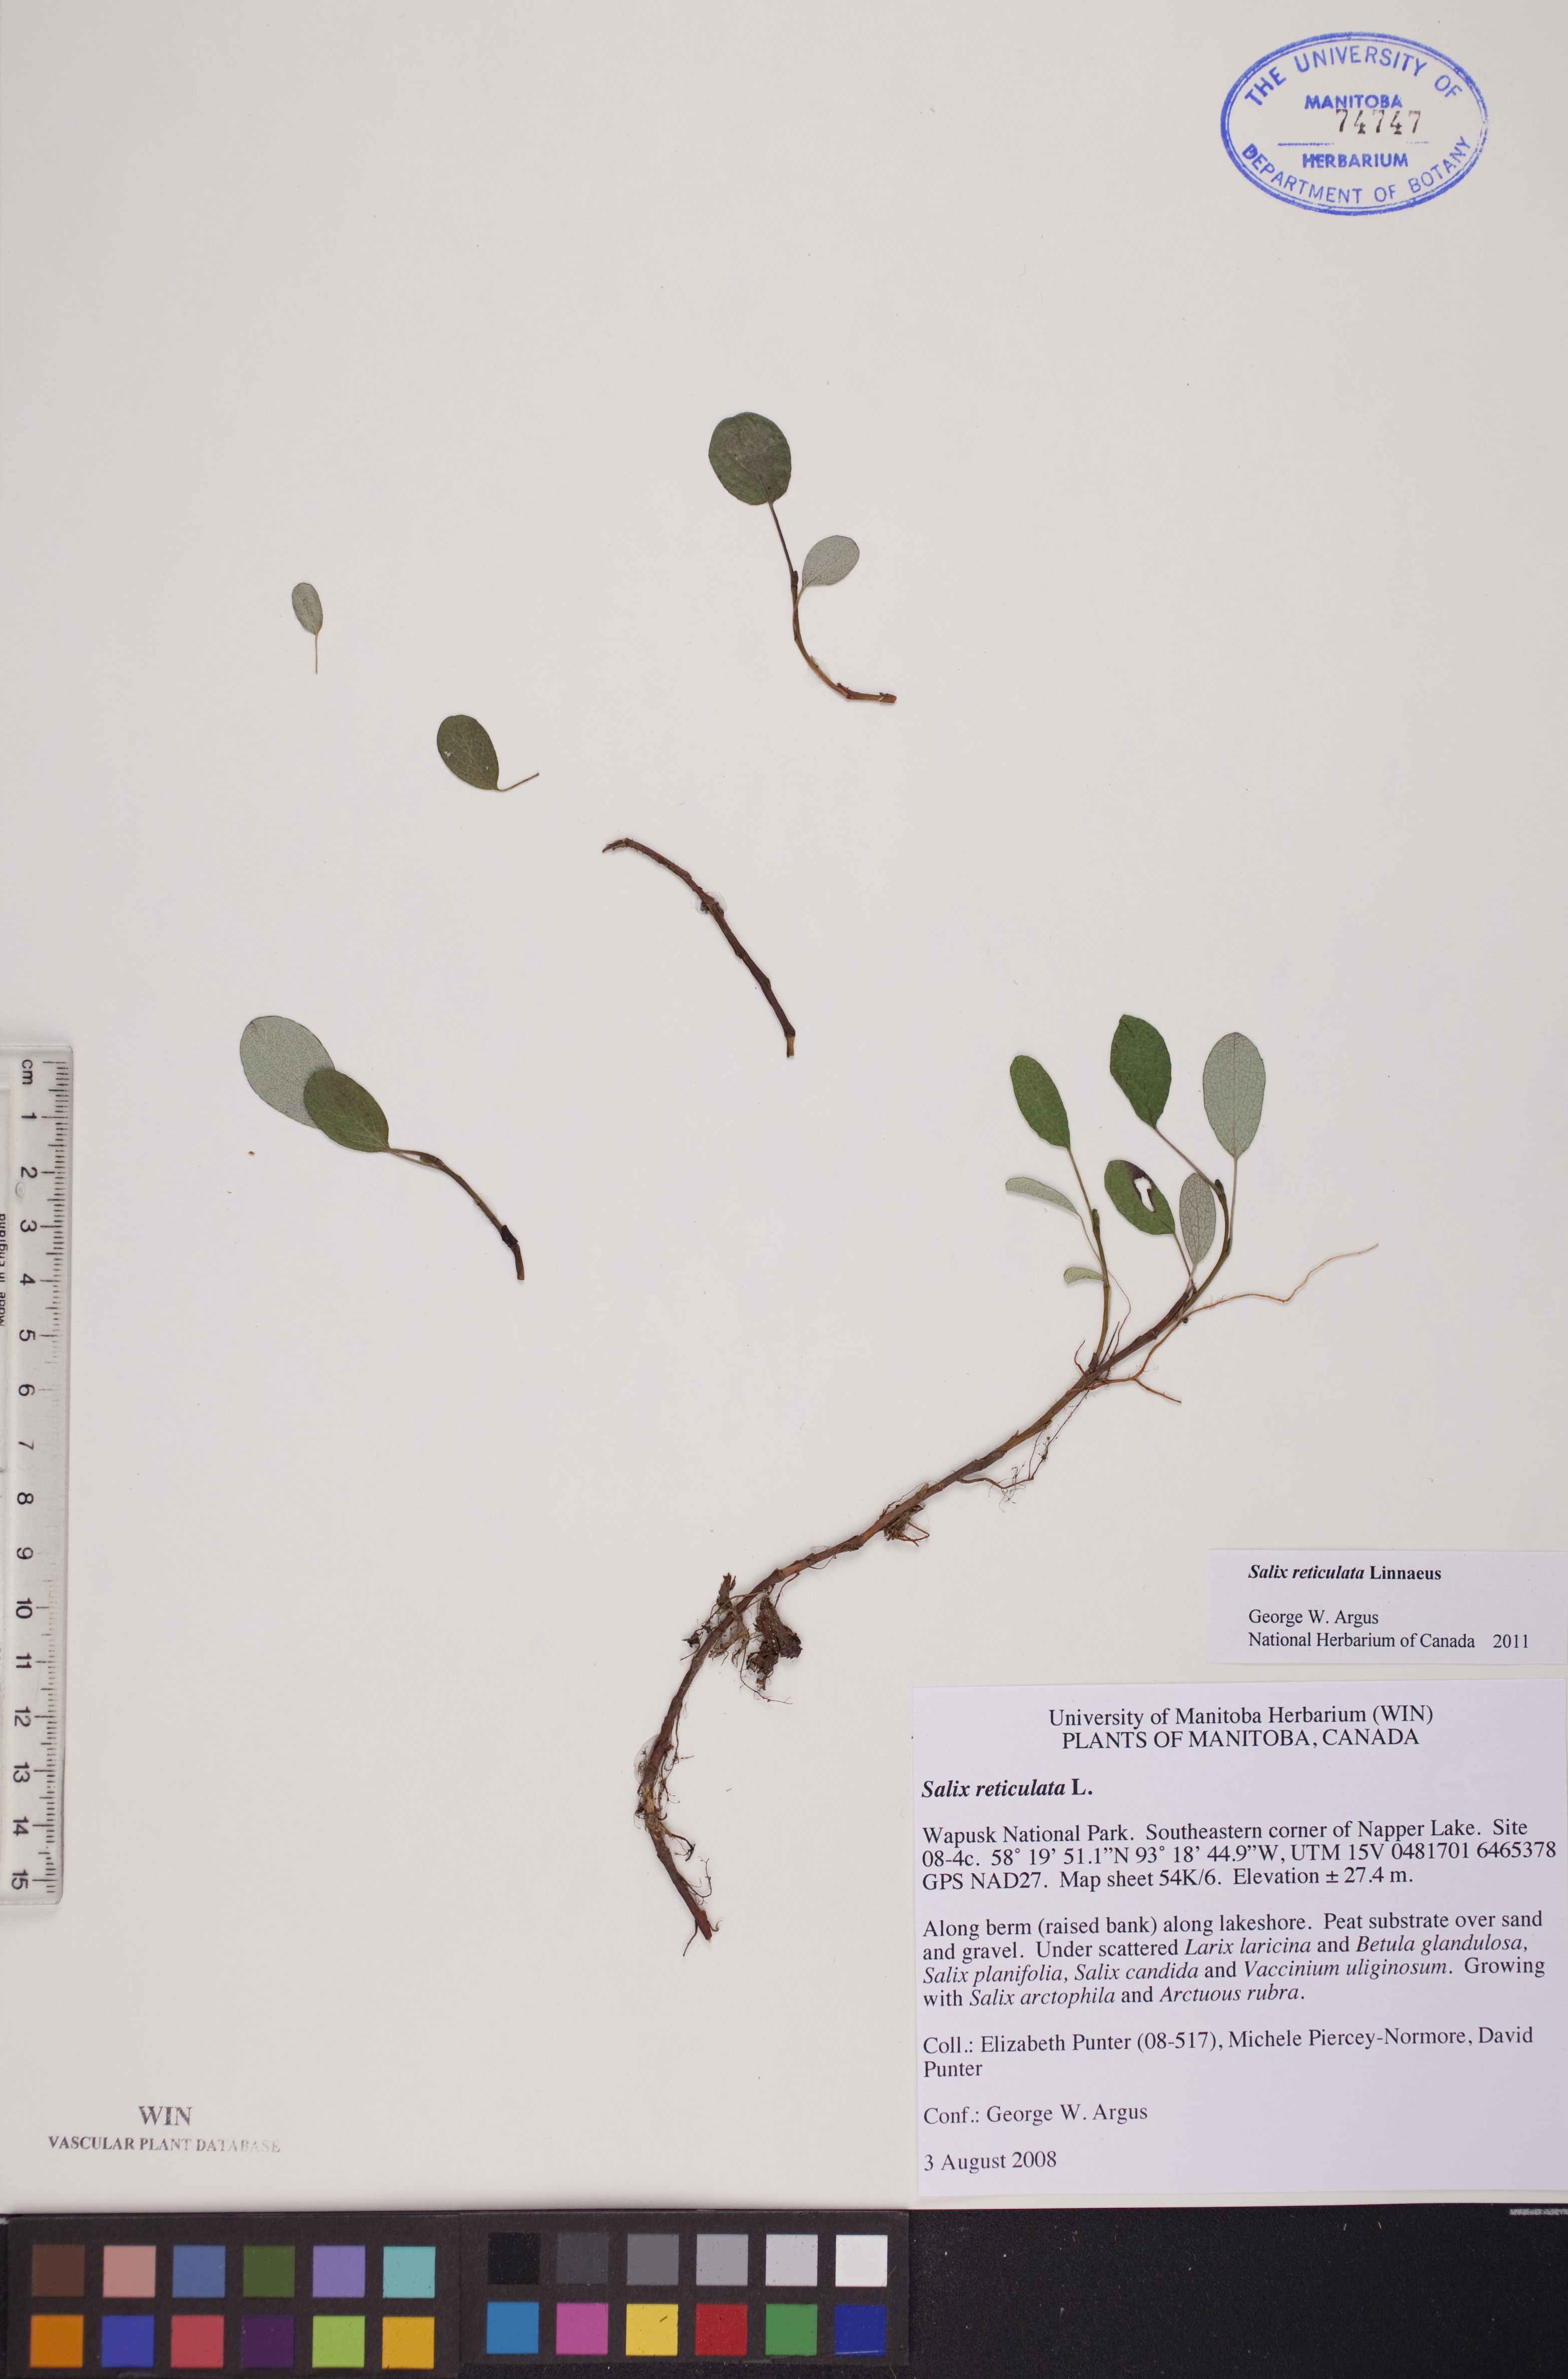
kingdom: Plantae
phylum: Tracheophyta
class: Magnoliopsida
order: Malpighiales
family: Salicaceae
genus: Salix
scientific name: Salix reticulata
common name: Net-leaved willow
